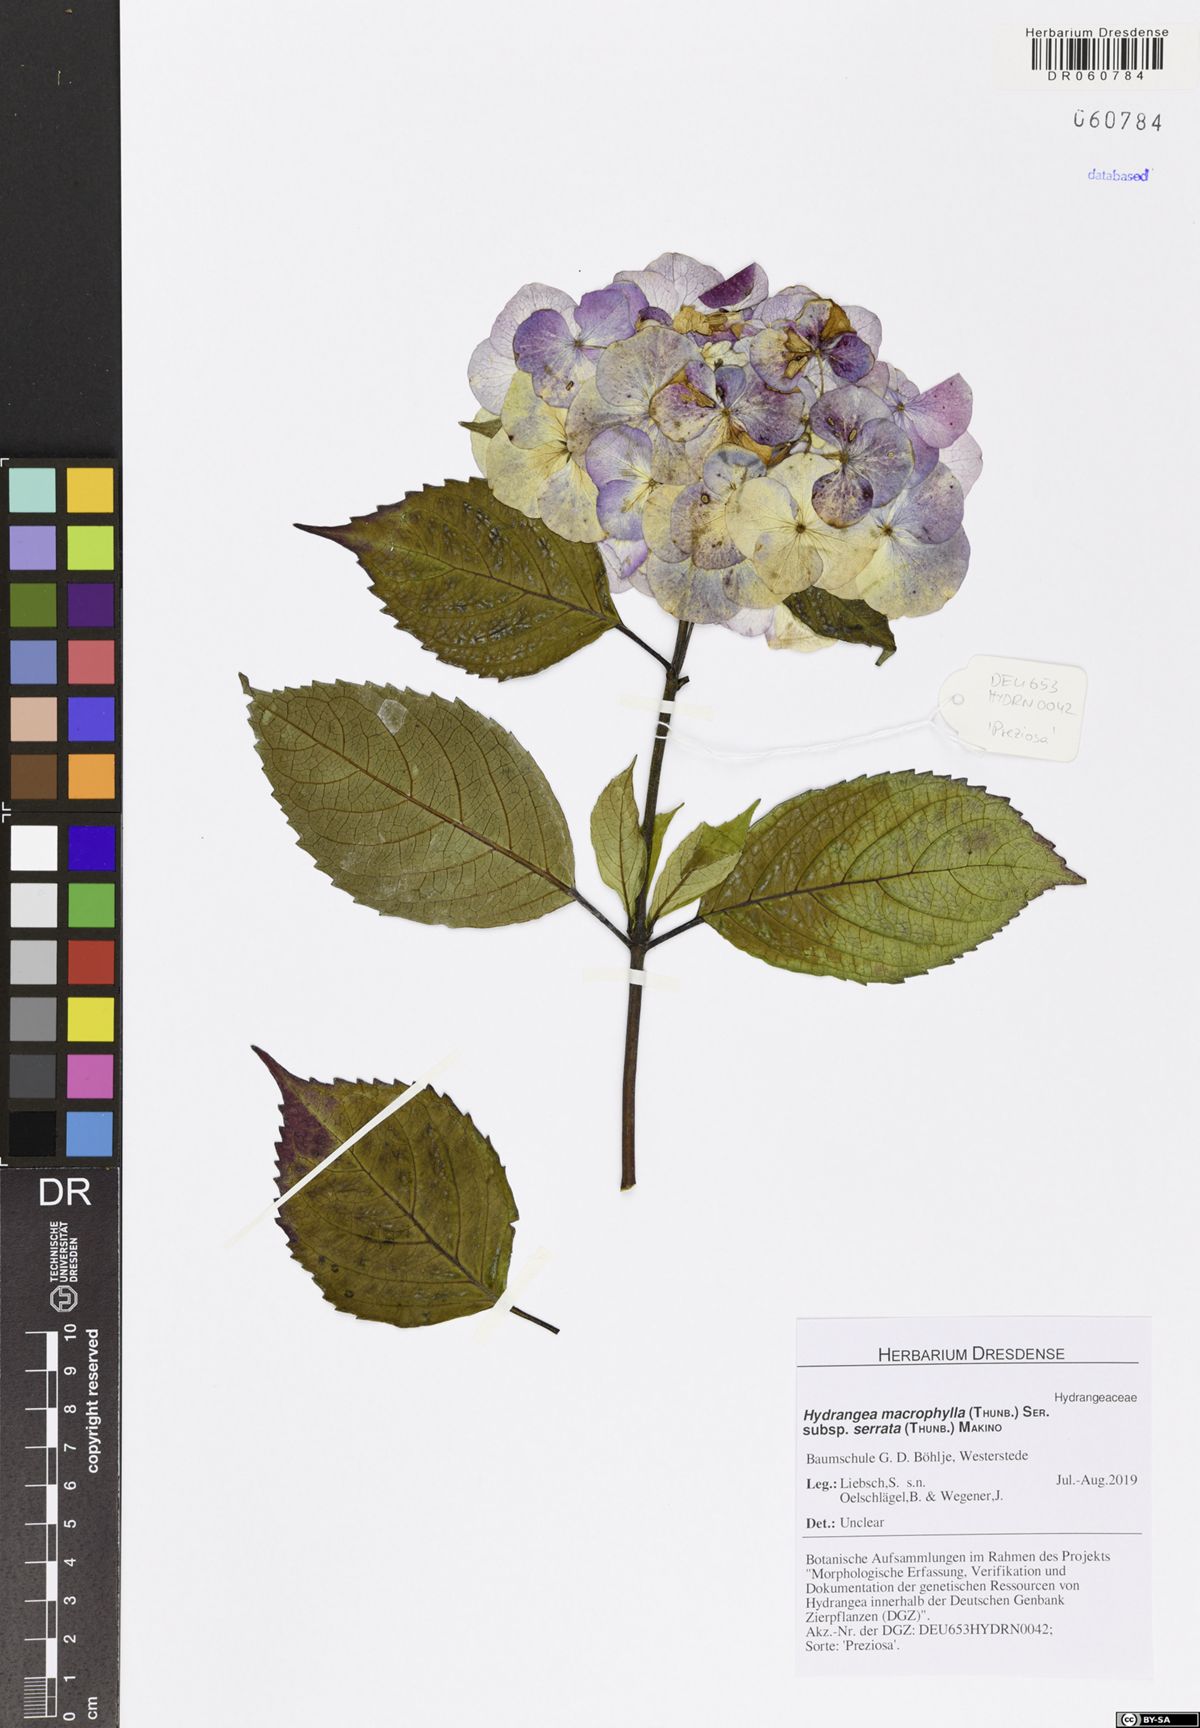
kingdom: Plantae
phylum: Tracheophyta
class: Magnoliopsida
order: Cornales
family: Hydrangeaceae
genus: Hydrangea
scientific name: Hydrangea serrata
